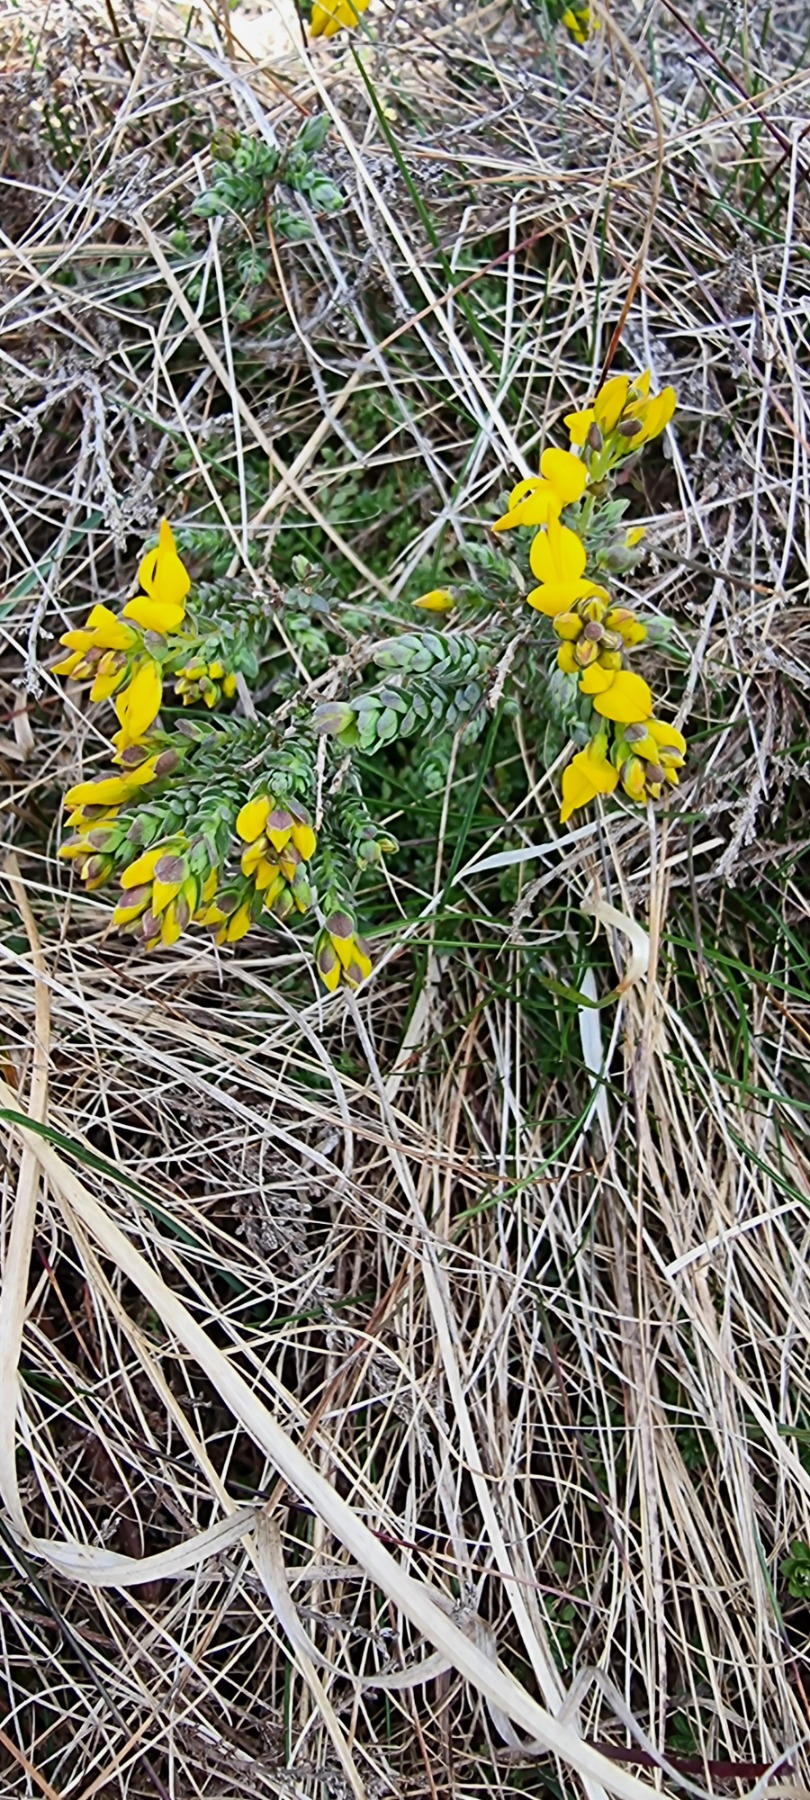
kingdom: Plantae
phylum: Tracheophyta
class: Magnoliopsida
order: Fabales
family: Fabaceae
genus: Genista
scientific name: Genista anglica
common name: Engelsk visse
